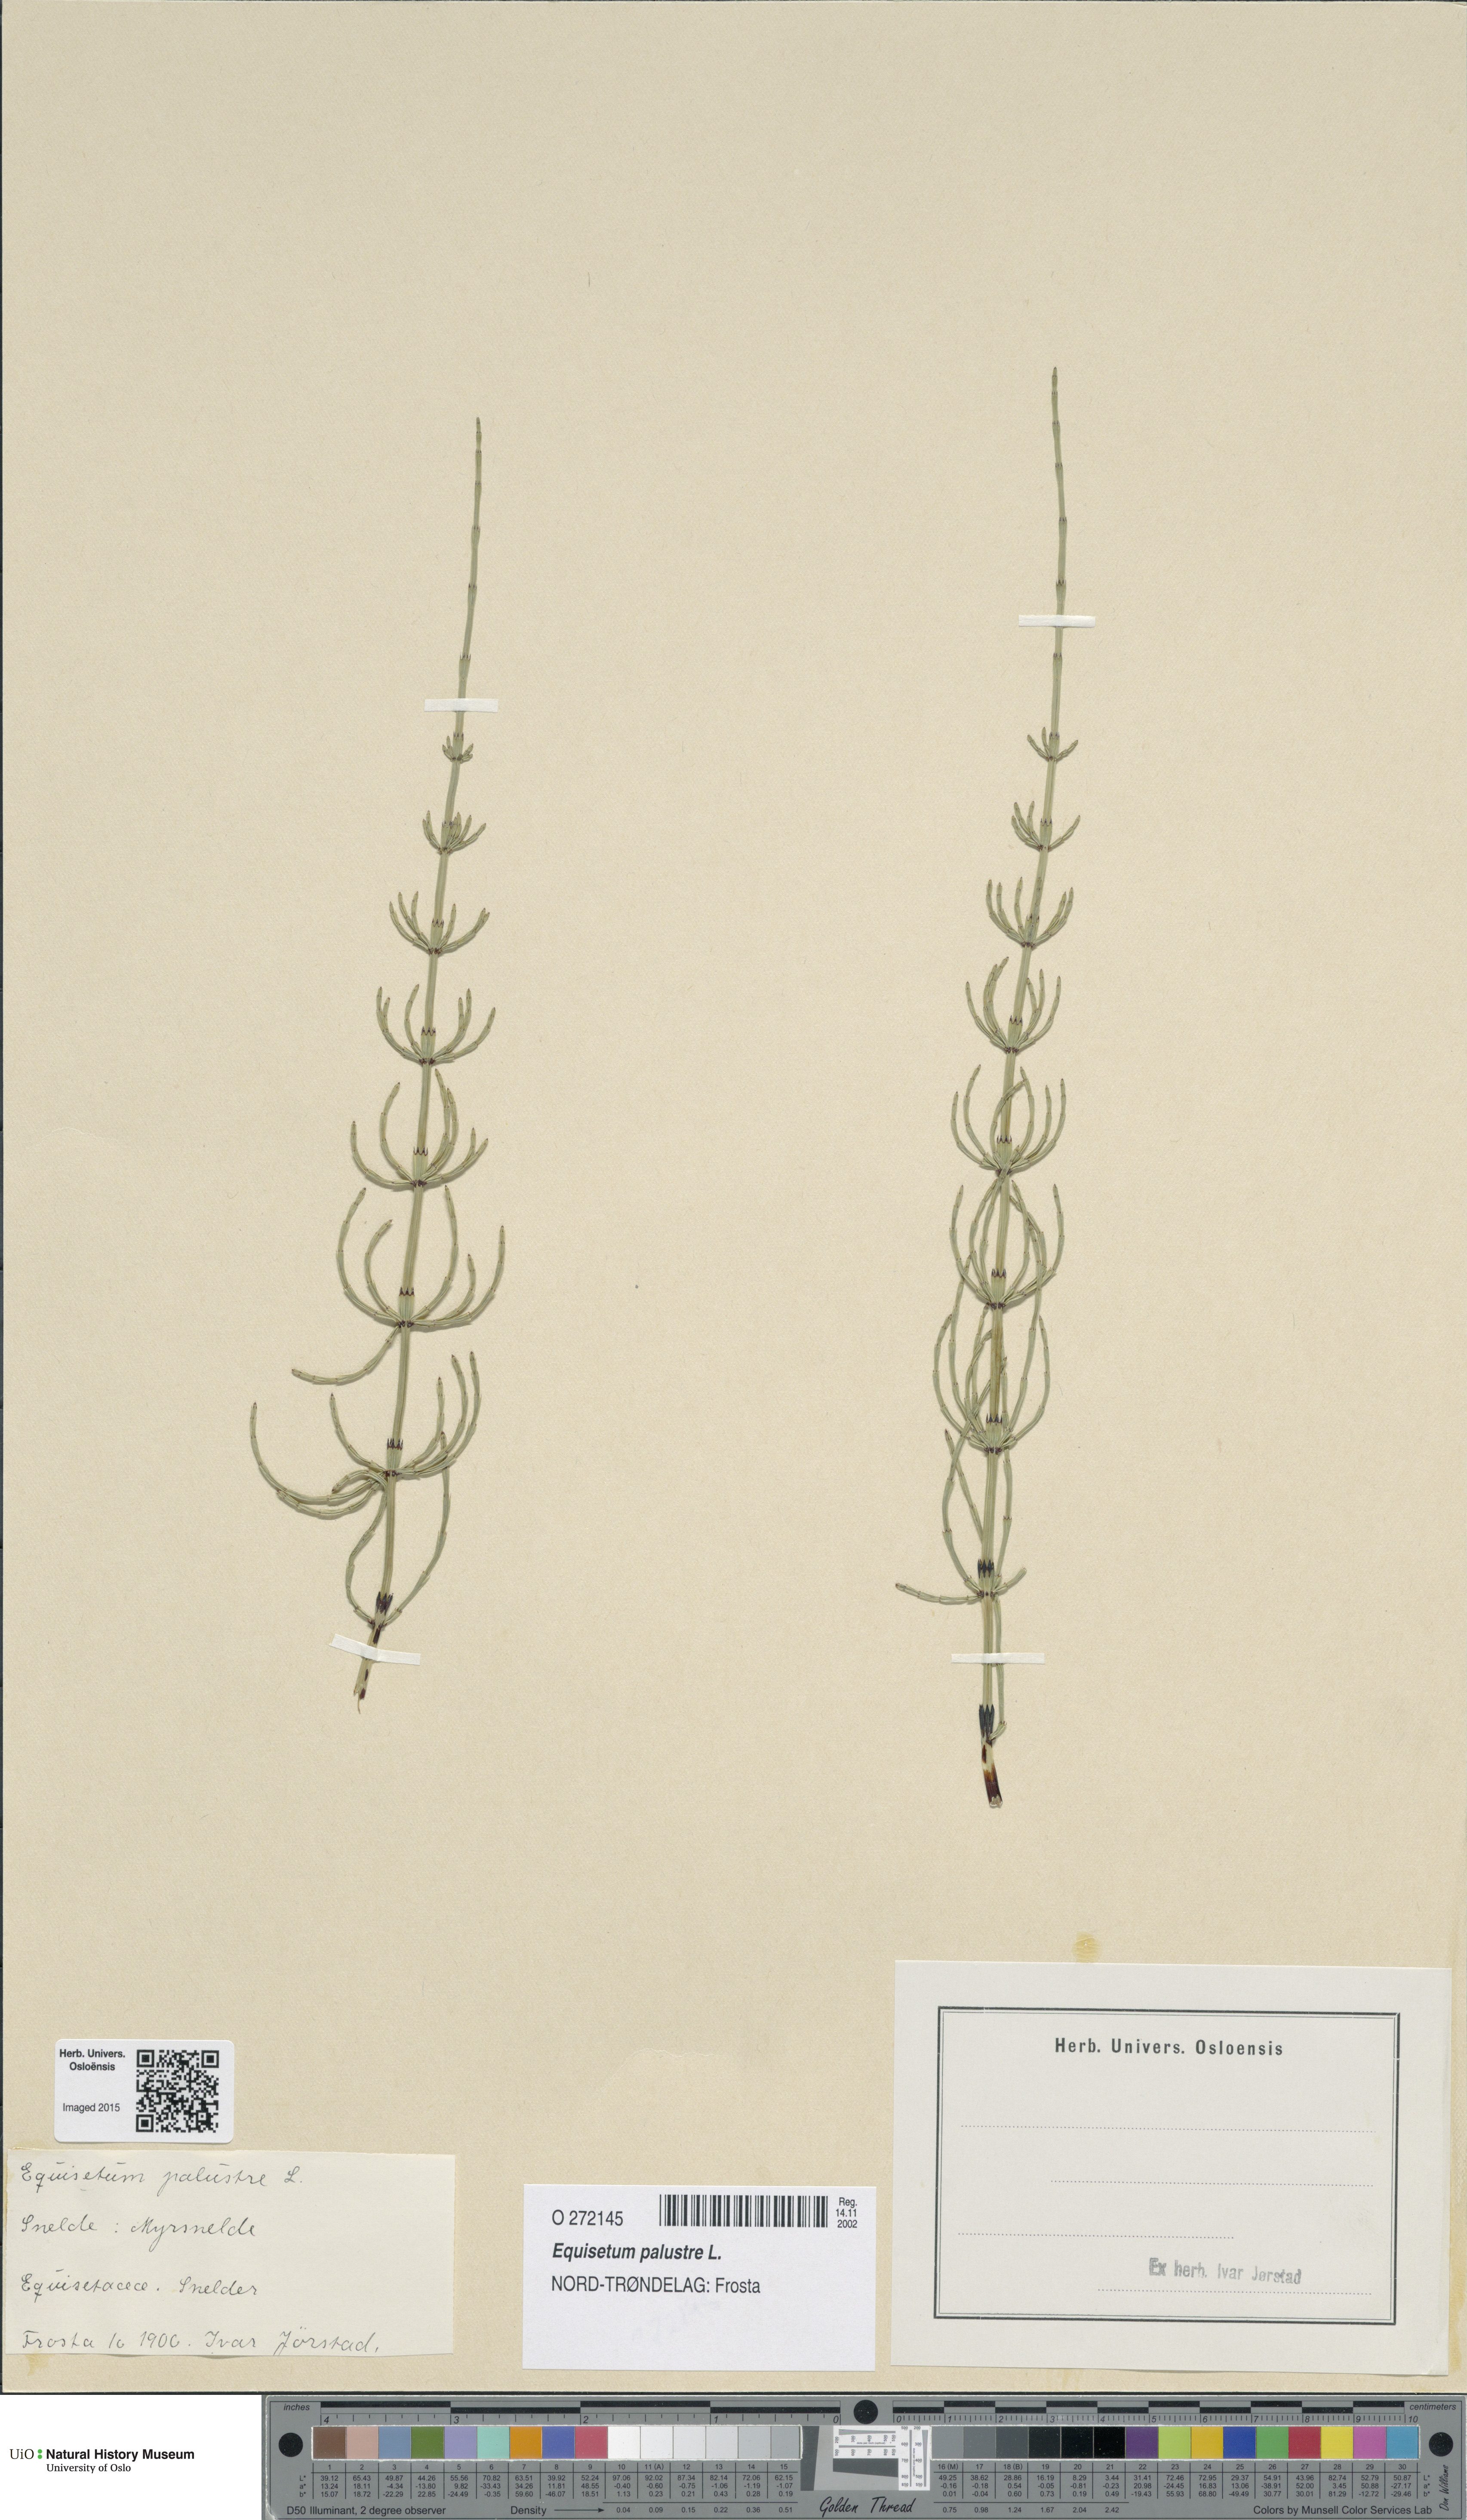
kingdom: Plantae
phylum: Tracheophyta
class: Polypodiopsida
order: Equisetales
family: Equisetaceae
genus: Equisetum
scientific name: Equisetum palustre
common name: Marsh horsetail
